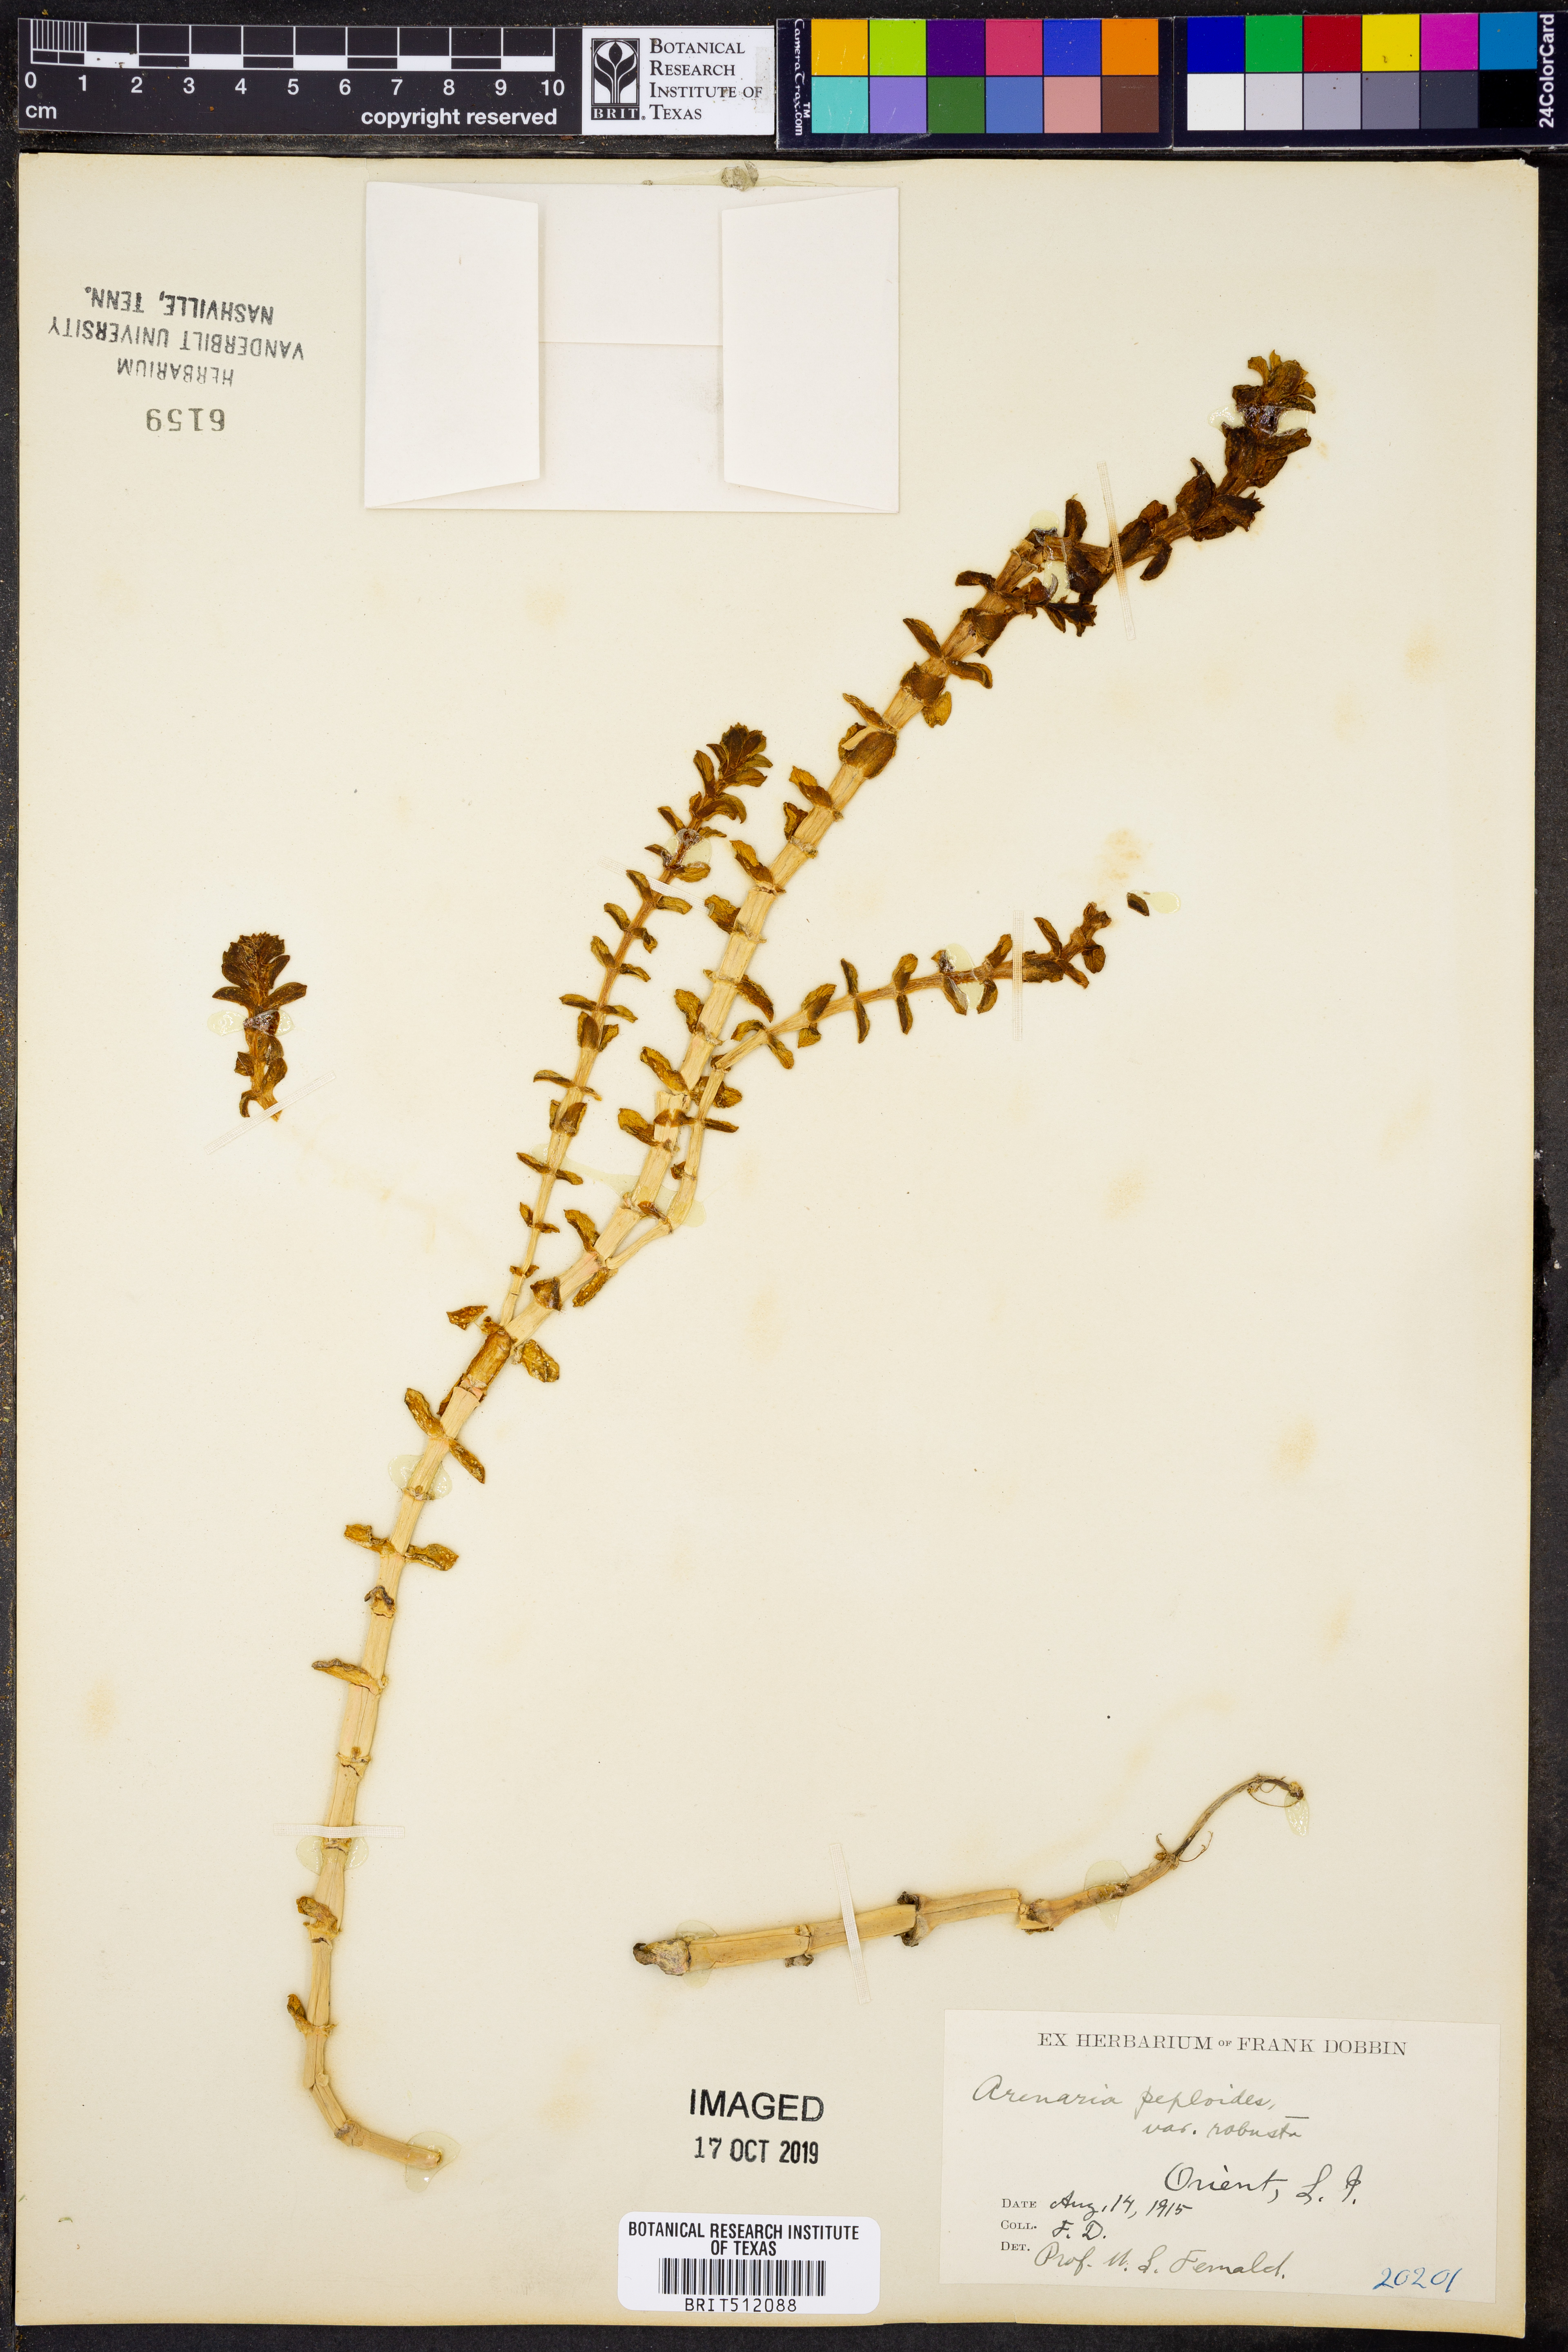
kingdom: Plantae
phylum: Tracheophyta
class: Magnoliopsida
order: Caryophyllales
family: Caryophyllaceae
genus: Honckenya
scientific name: Honckenya peploides
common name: Sea sandwort
